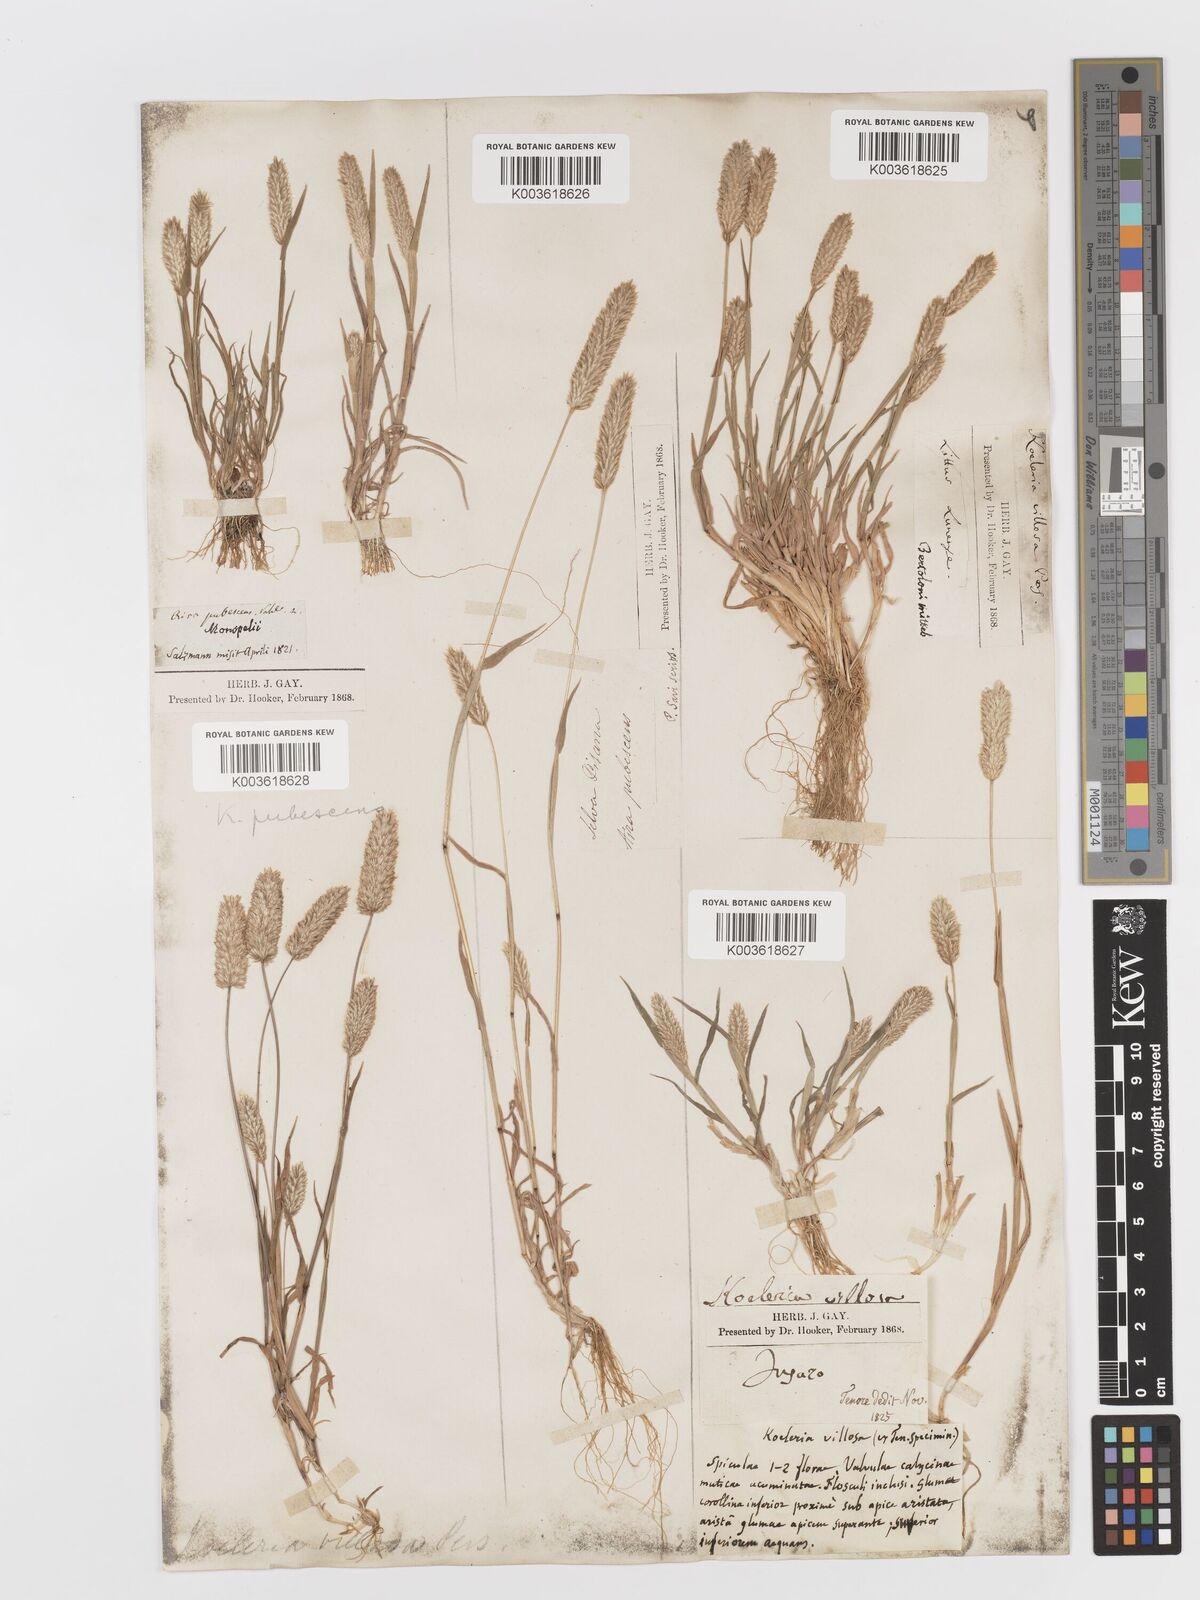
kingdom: Plantae
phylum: Tracheophyta
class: Liliopsida
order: Poales
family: Poaceae
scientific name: Poaceae
